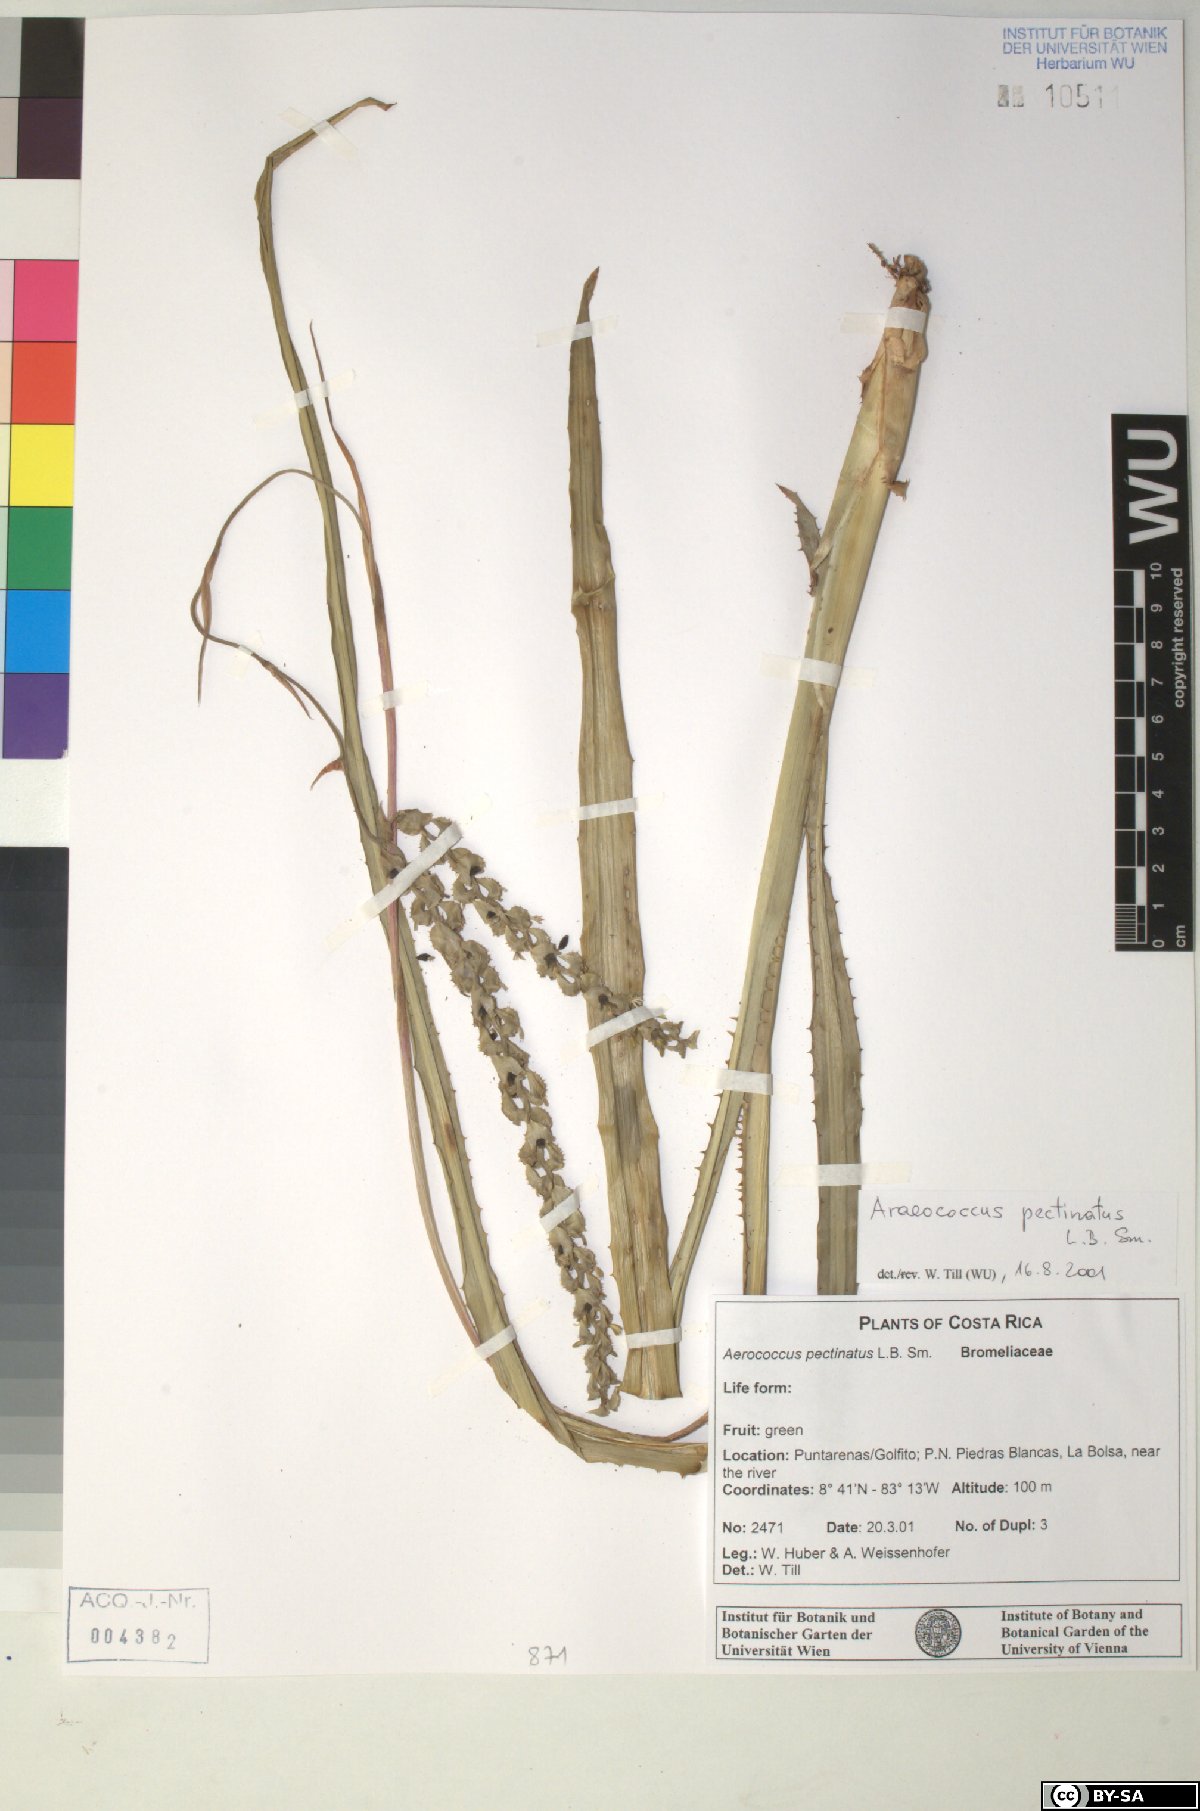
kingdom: Plantae
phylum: Tracheophyta
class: Liliopsida
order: Poales
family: Bromeliaceae
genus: Araeococcus
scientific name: Araeococcus pectinatus
